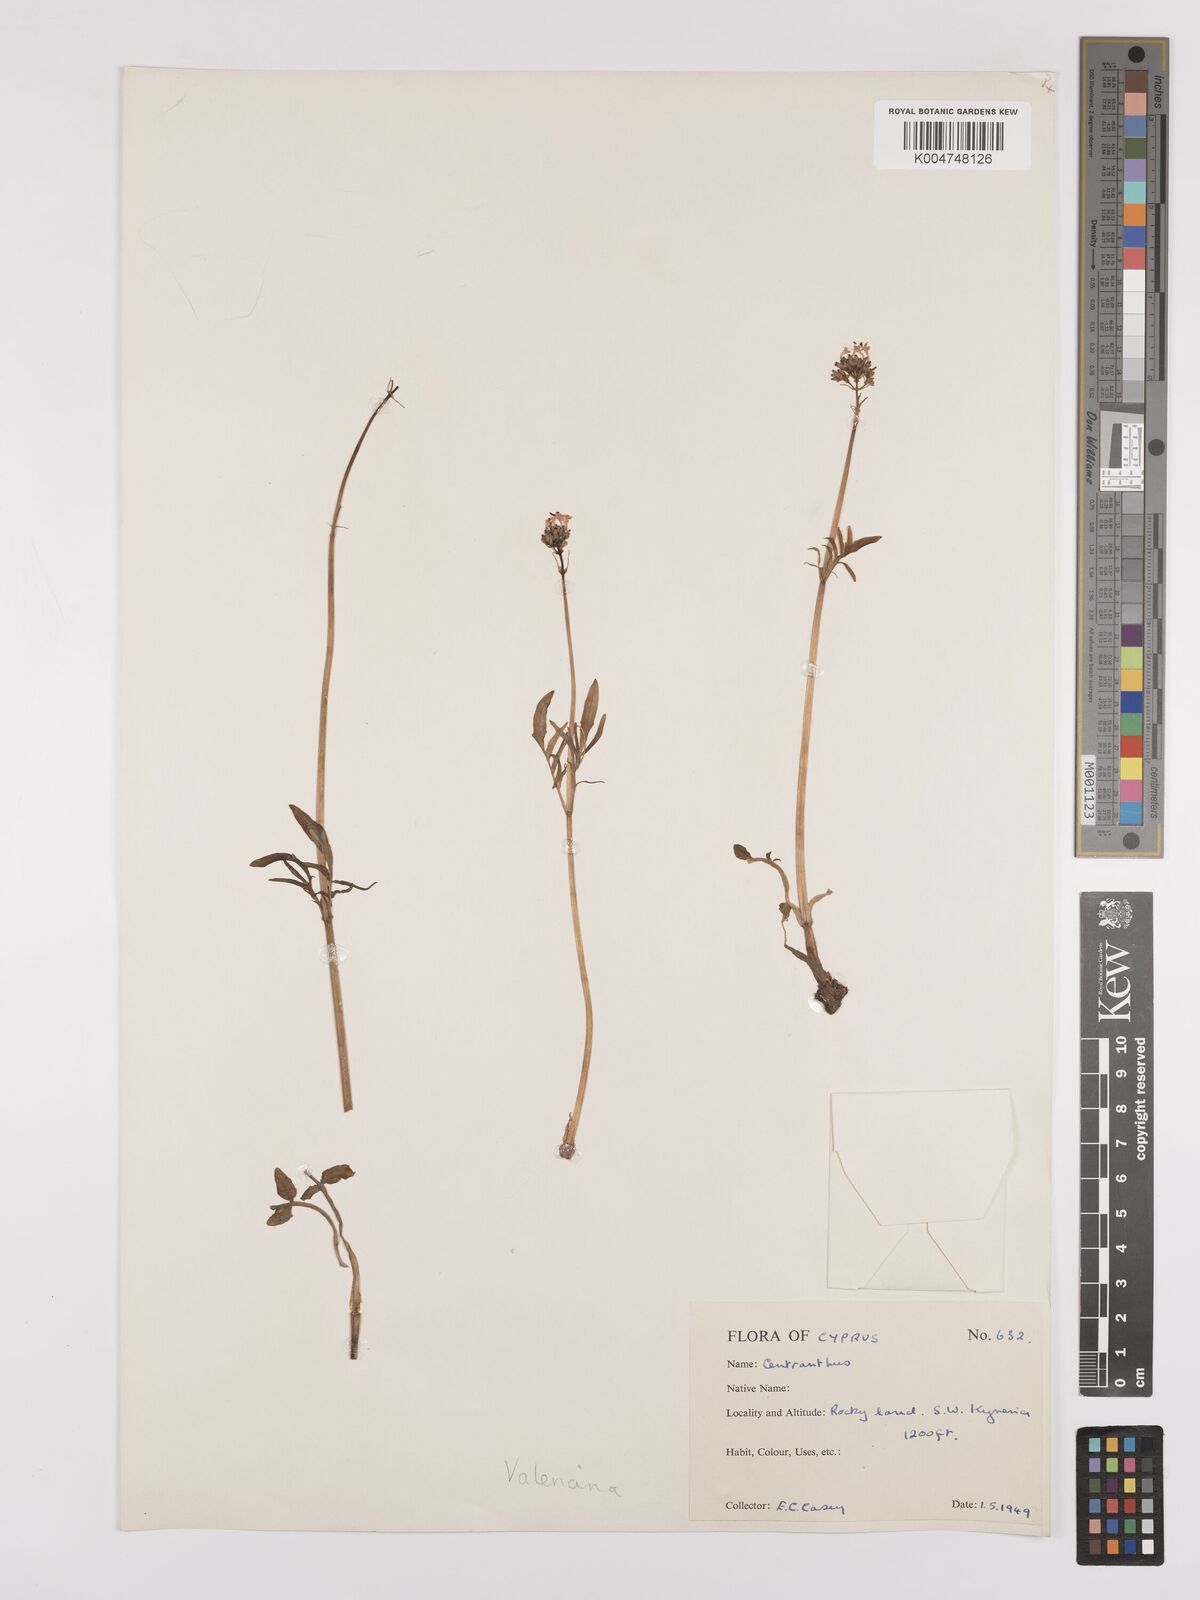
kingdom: Plantae
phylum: Tracheophyta
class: Magnoliopsida
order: Dipsacales
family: Caprifoliaceae
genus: Valeriana
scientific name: Valeriana
